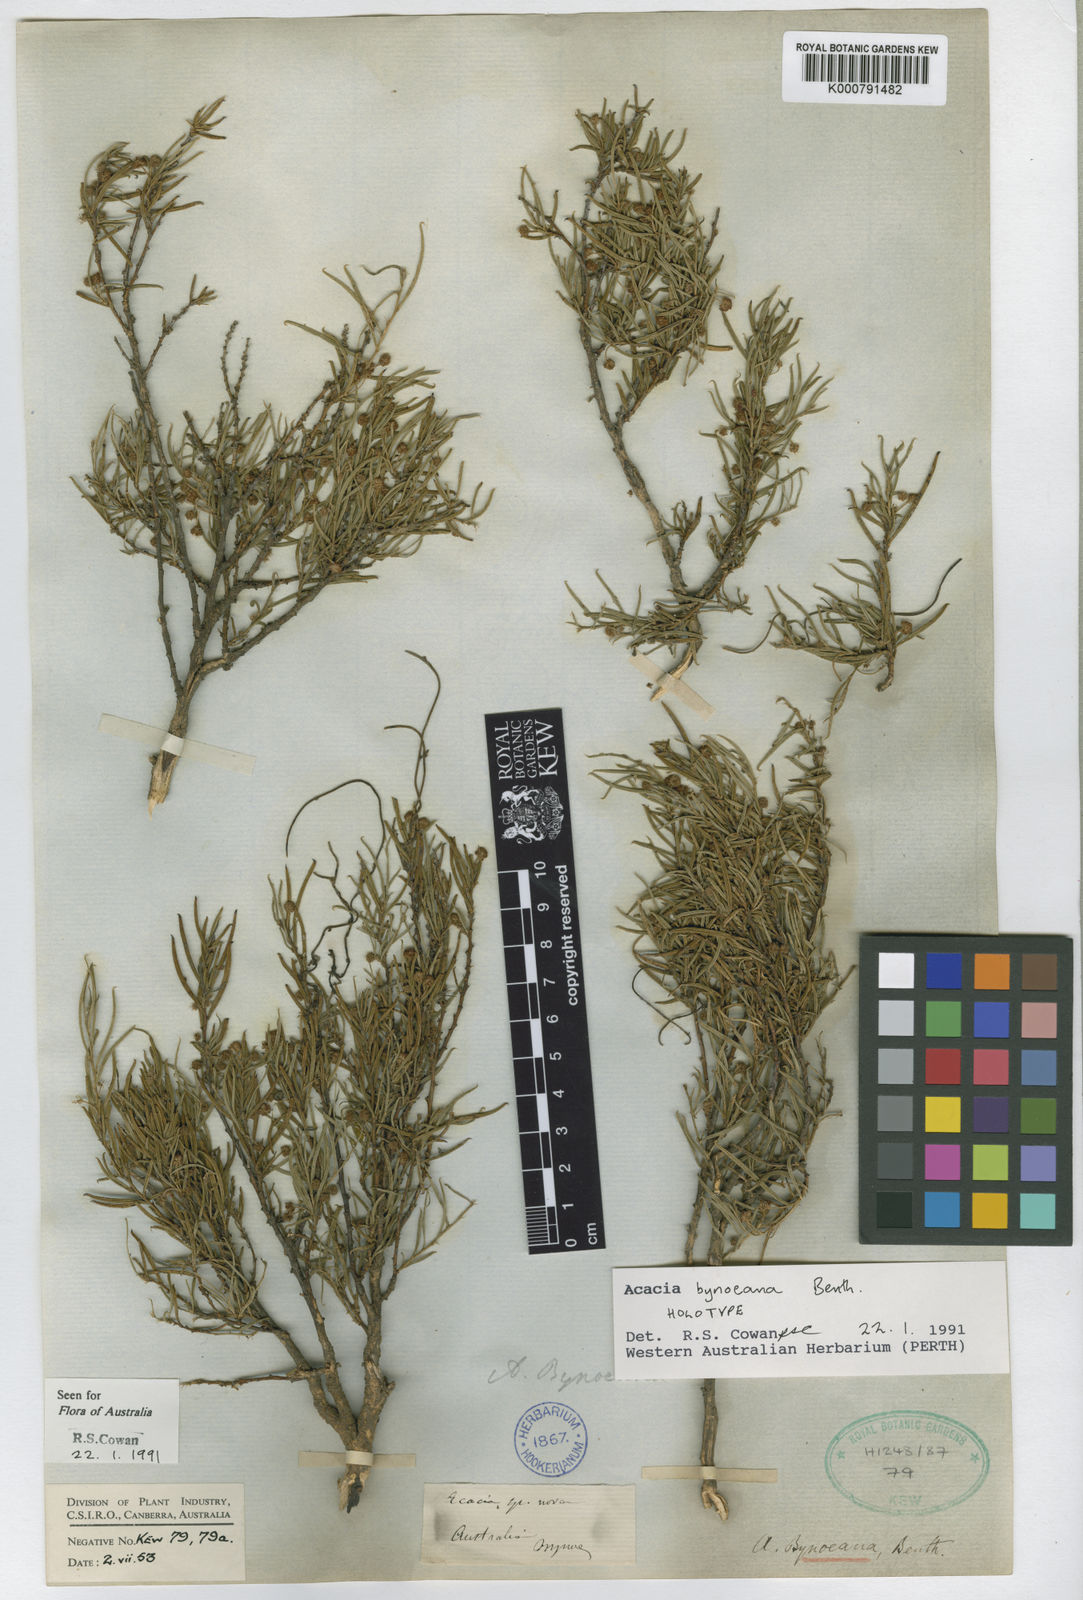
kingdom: Plantae
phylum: Tracheophyta
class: Magnoliopsida
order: Fabales
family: Fabaceae
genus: Acacia
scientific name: Acacia bynoeana
